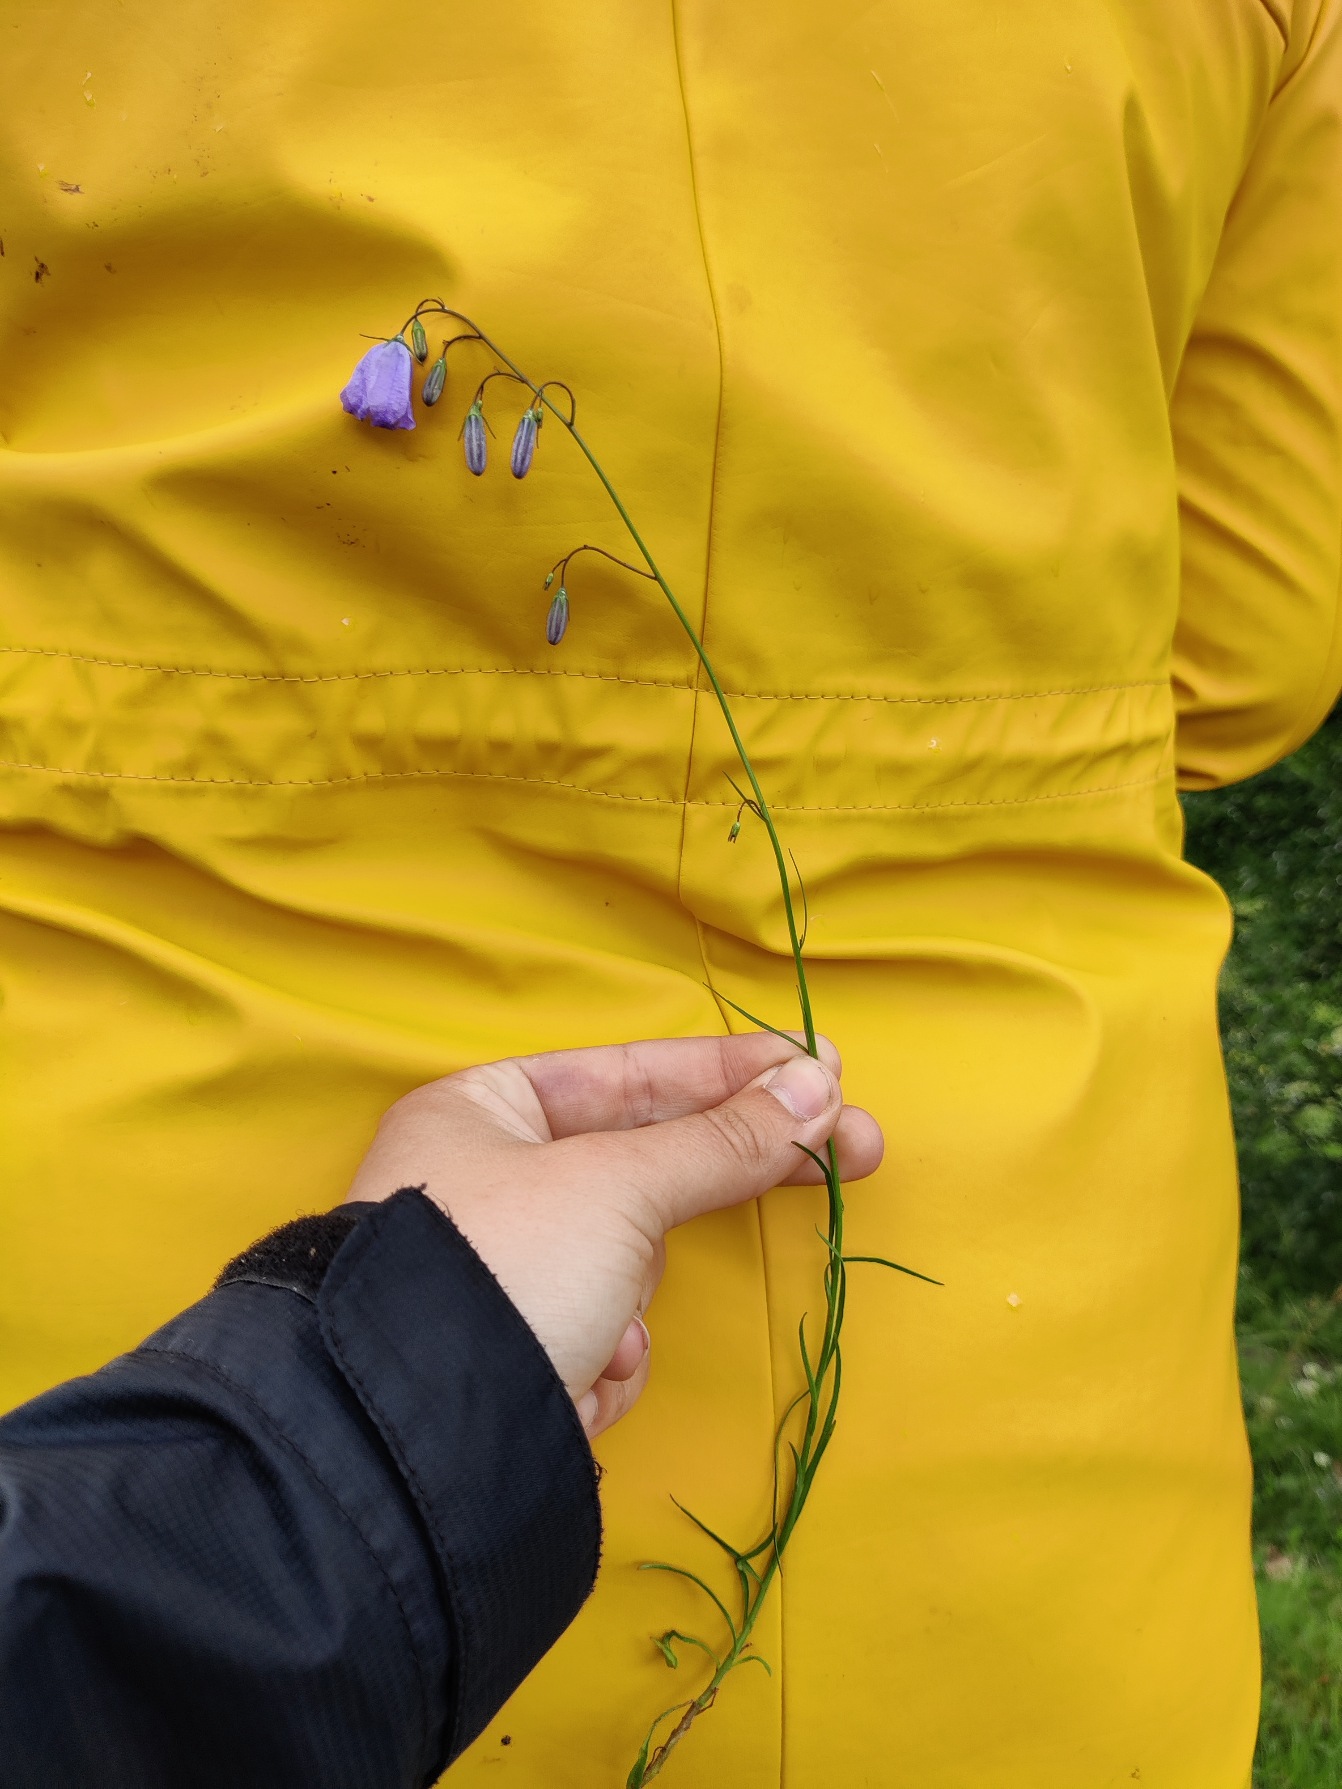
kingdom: Plantae
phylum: Tracheophyta
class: Magnoliopsida
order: Asterales
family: Campanulaceae
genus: Campanula
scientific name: Campanula rotundifolia
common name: Liden klokke
